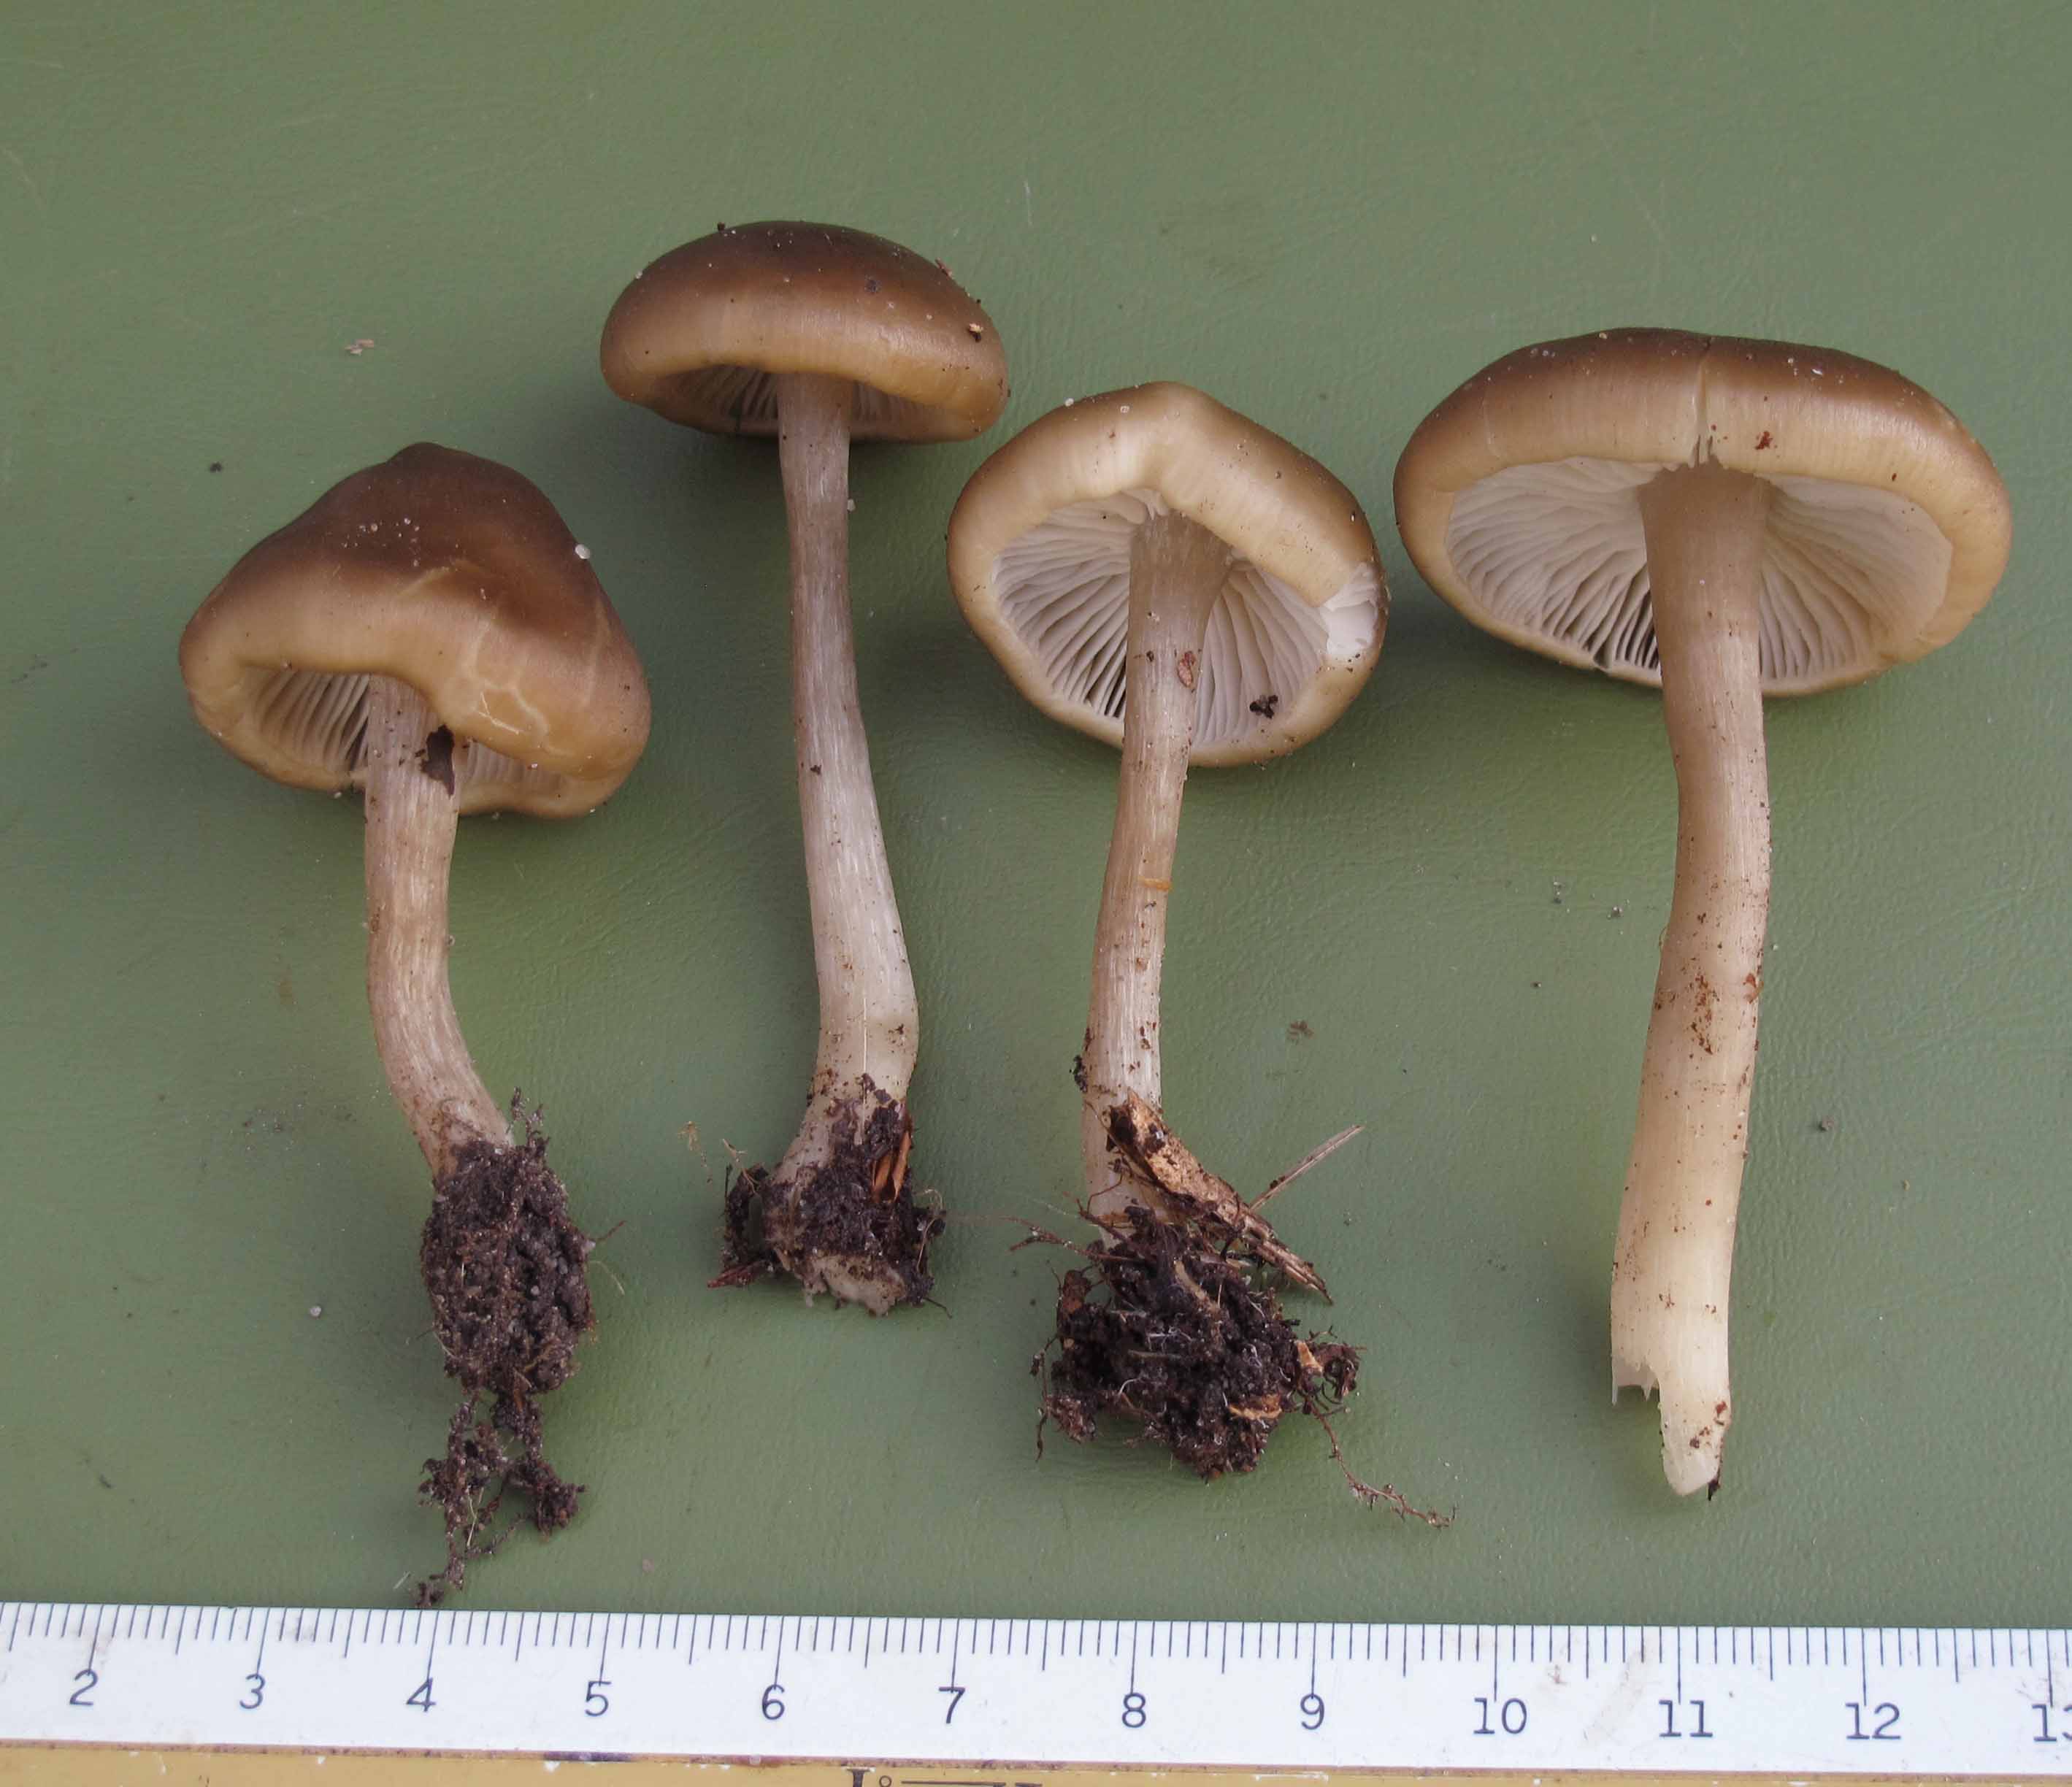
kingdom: Fungi
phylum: Basidiomycota
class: Agaricomycetes
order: Agaricales
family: Entolomataceae
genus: Entoloma
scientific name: Entoloma rhodopolium
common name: skov-rødblad
